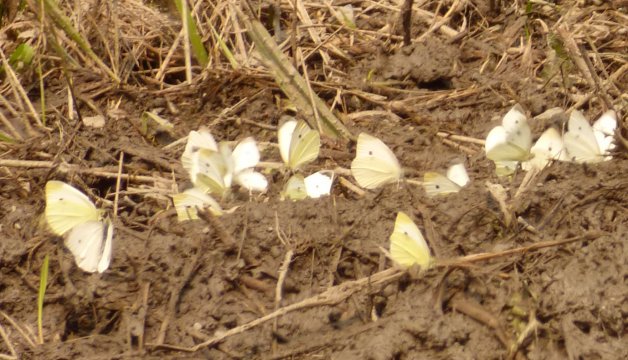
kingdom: Animalia
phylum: Arthropoda
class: Insecta
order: Lepidoptera
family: Pieridae
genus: Pieris
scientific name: Pieris rapae
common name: Cabbage White
